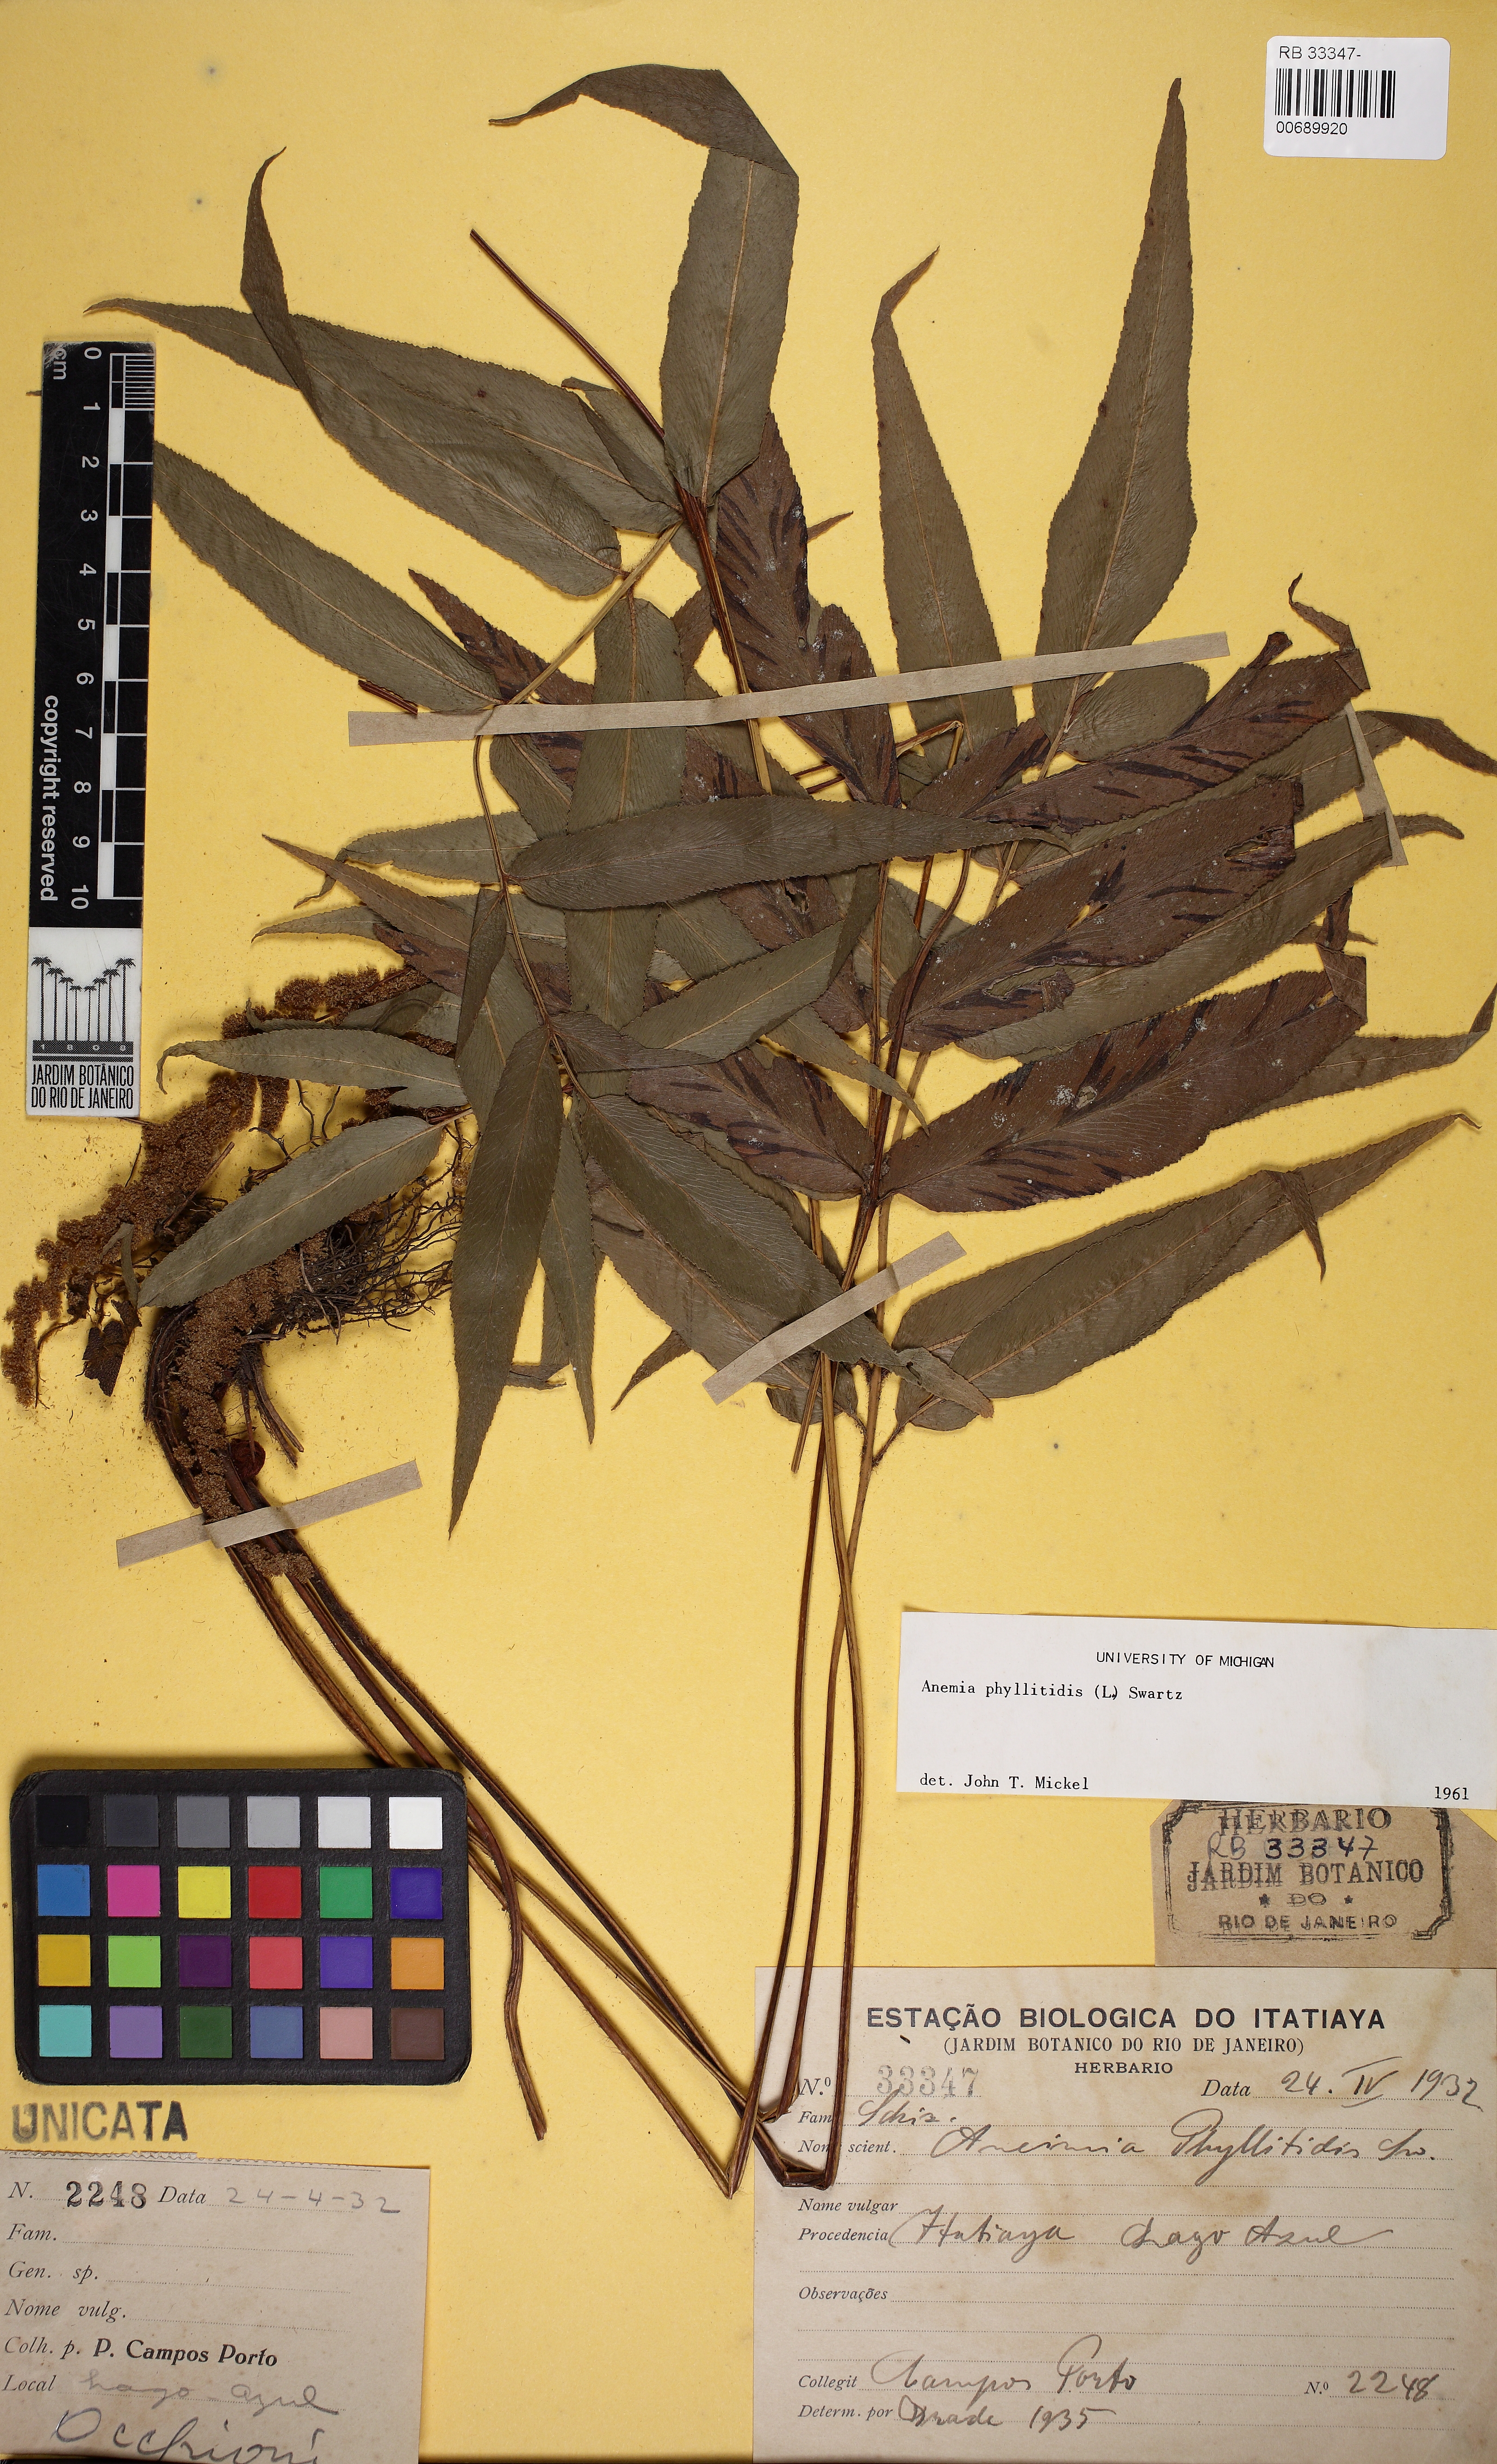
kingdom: Plantae
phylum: Tracheophyta
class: Polypodiopsida
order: Schizaeales
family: Anemiaceae
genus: Anemia
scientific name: Anemia phyllitidis
